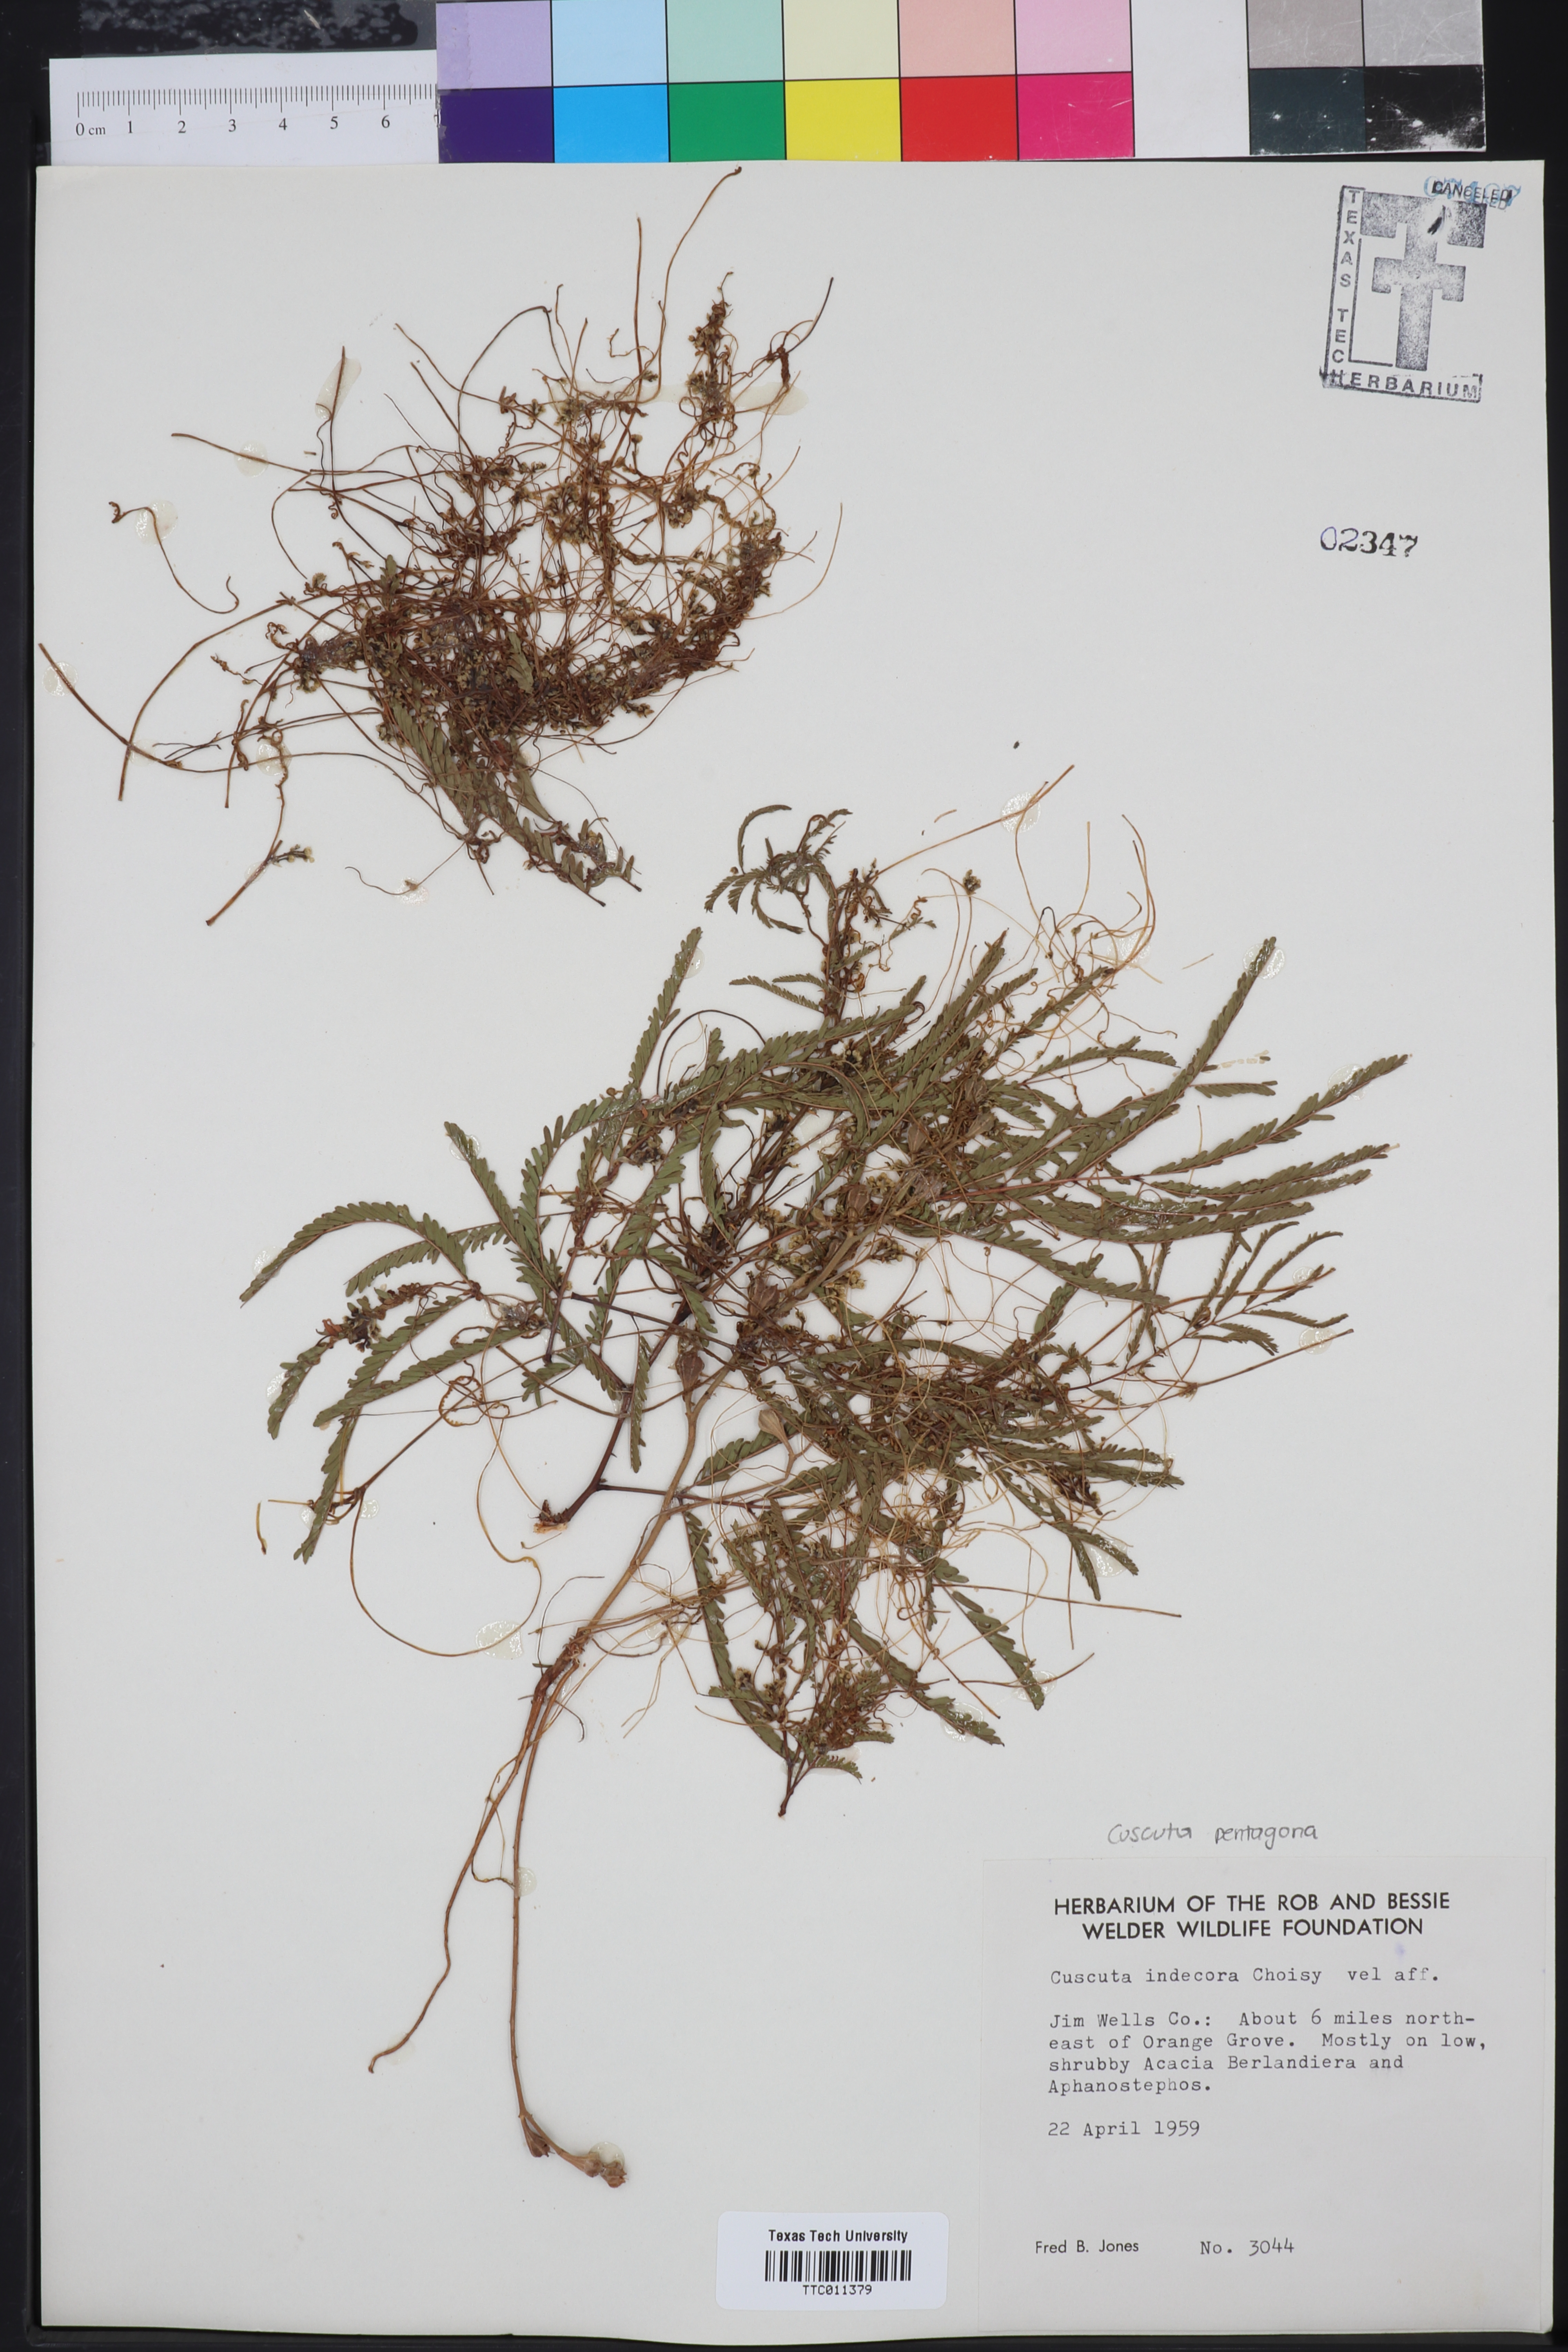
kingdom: Plantae
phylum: Tracheophyta
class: Magnoliopsida
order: Solanales
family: Convolvulaceae
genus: Cuscuta
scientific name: Cuscuta indecora
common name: Large-seed dodder
